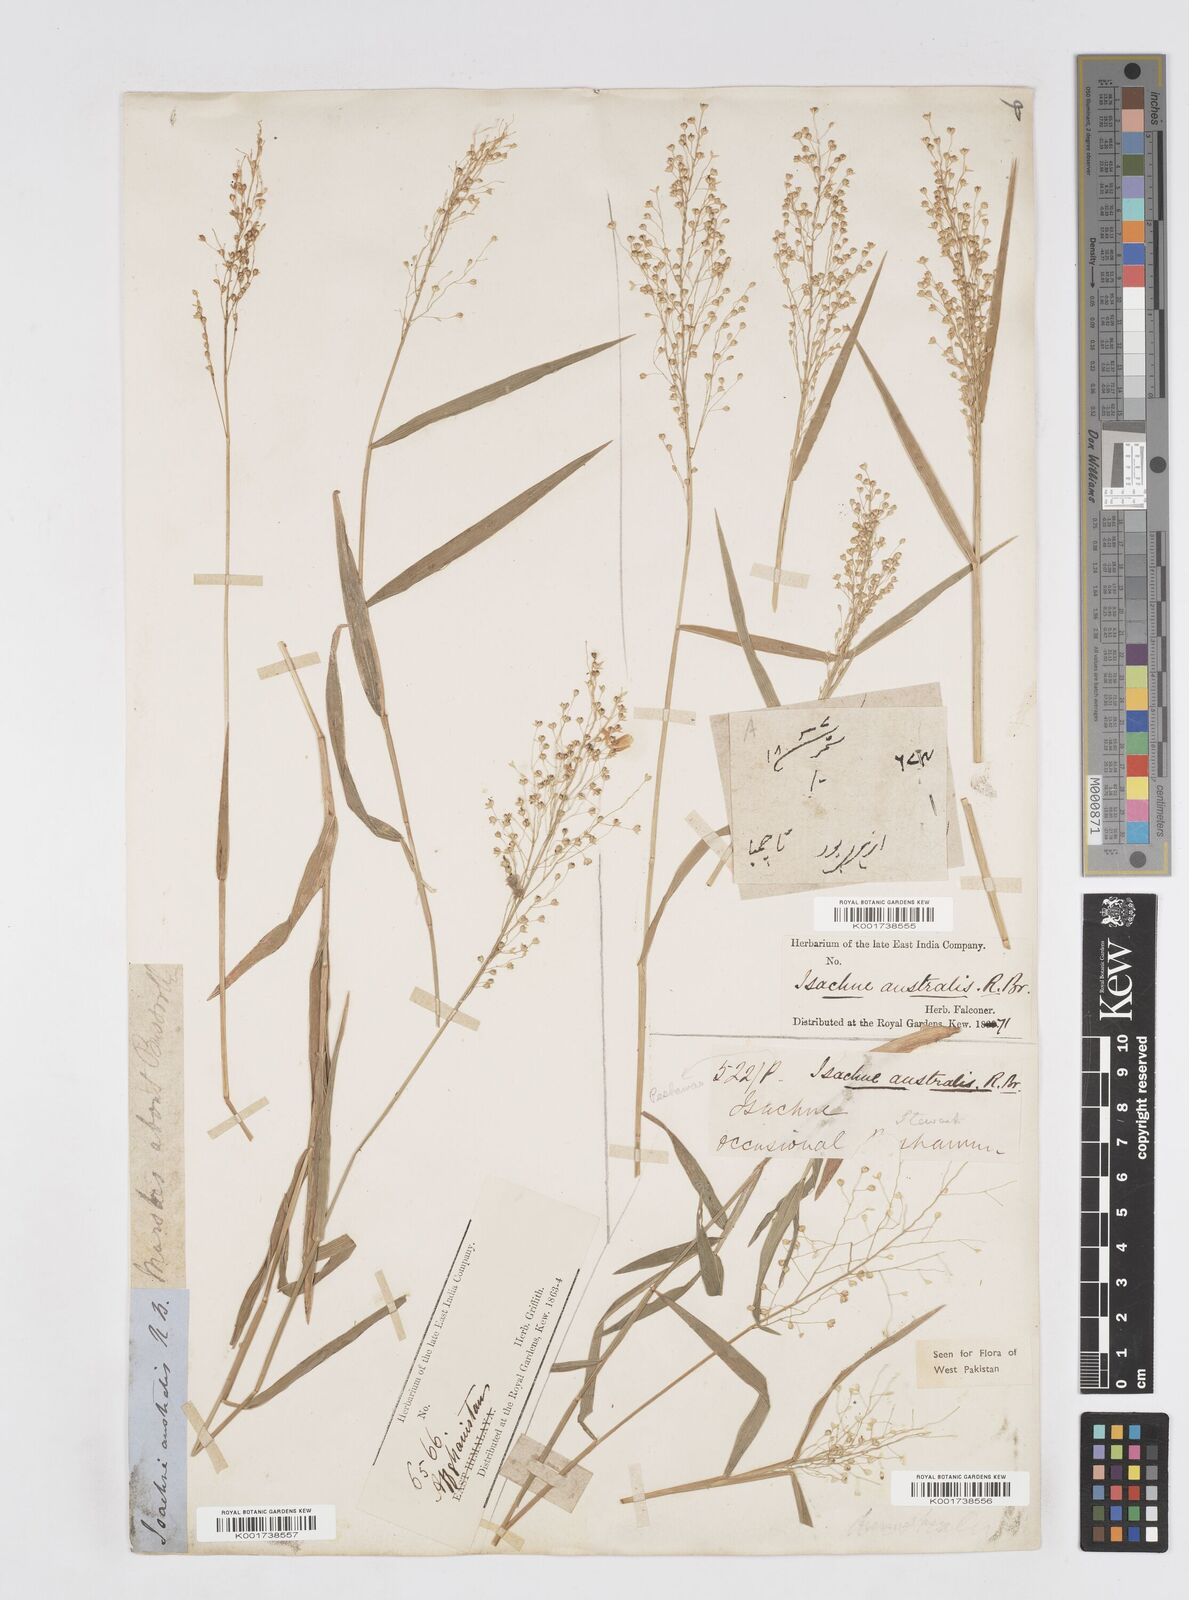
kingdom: Plantae
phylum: Tracheophyta
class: Liliopsida
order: Poales
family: Poaceae
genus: Isachne
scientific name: Isachne himalaica
